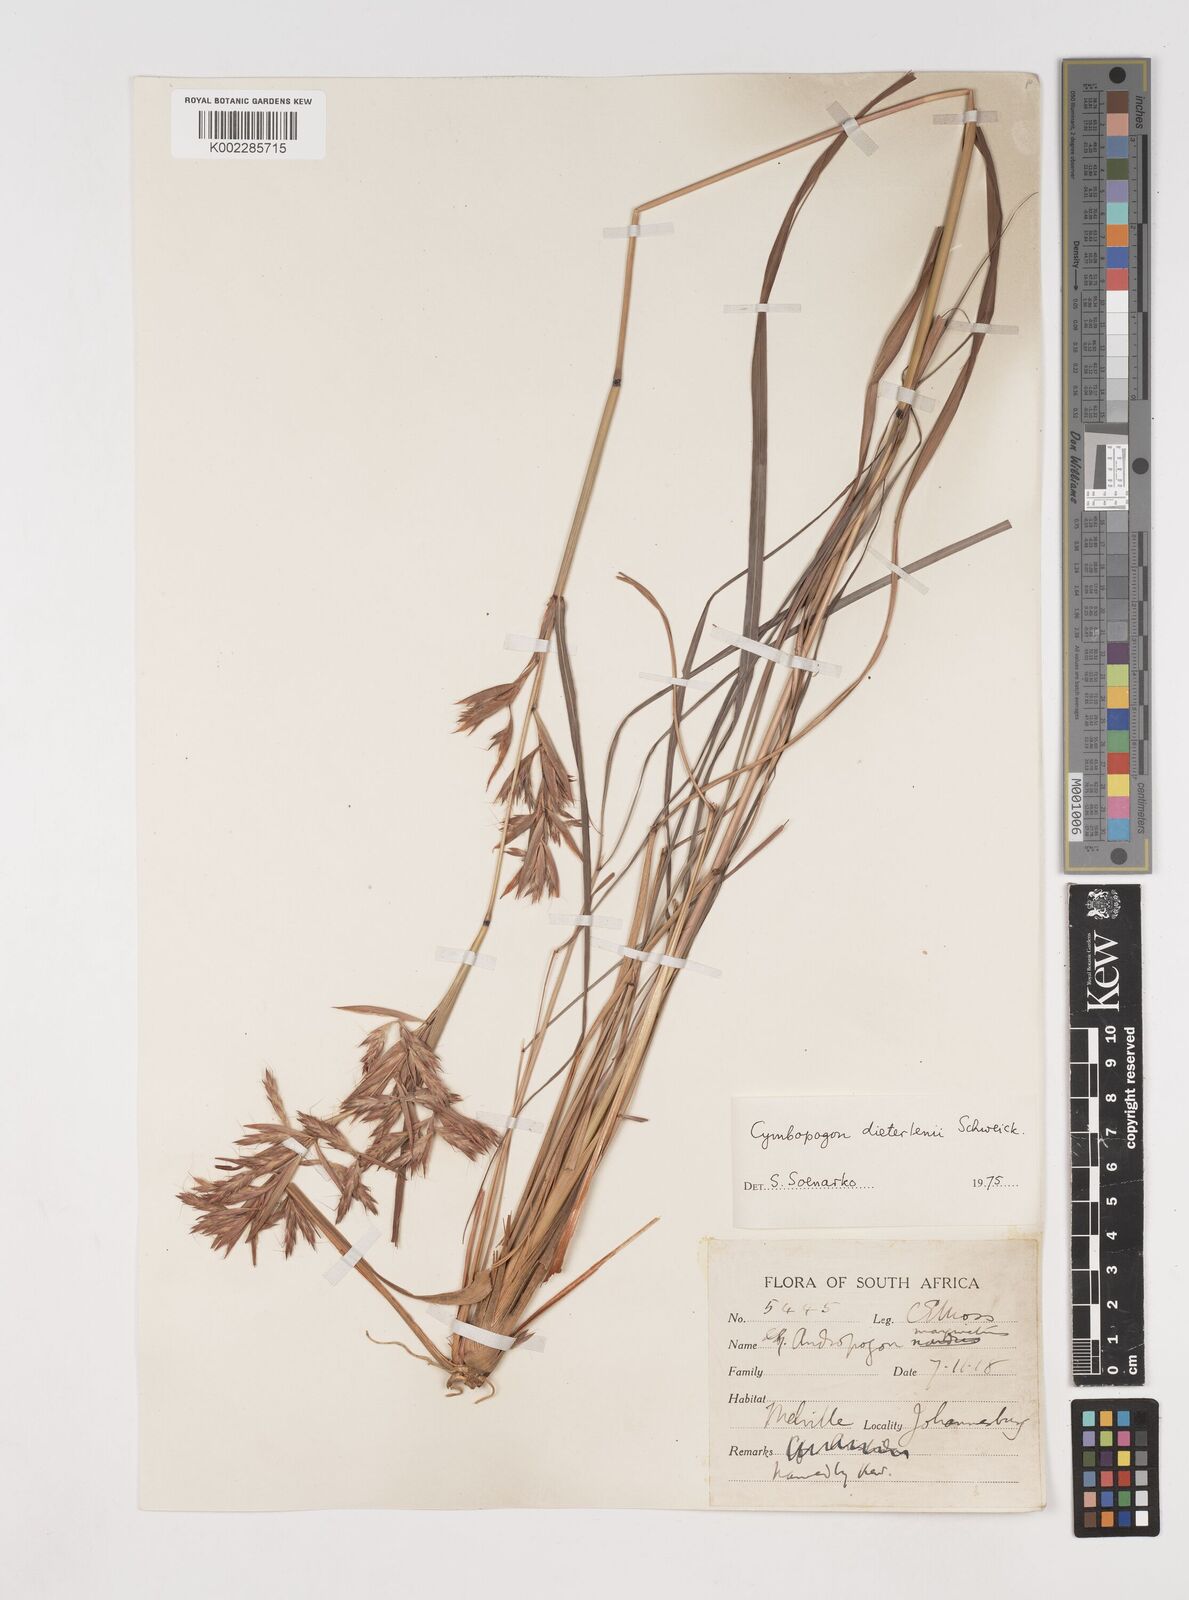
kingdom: Plantae
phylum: Tracheophyta
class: Liliopsida
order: Poales
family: Poaceae
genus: Cymbopogon
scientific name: Cymbopogon dieterlenii
